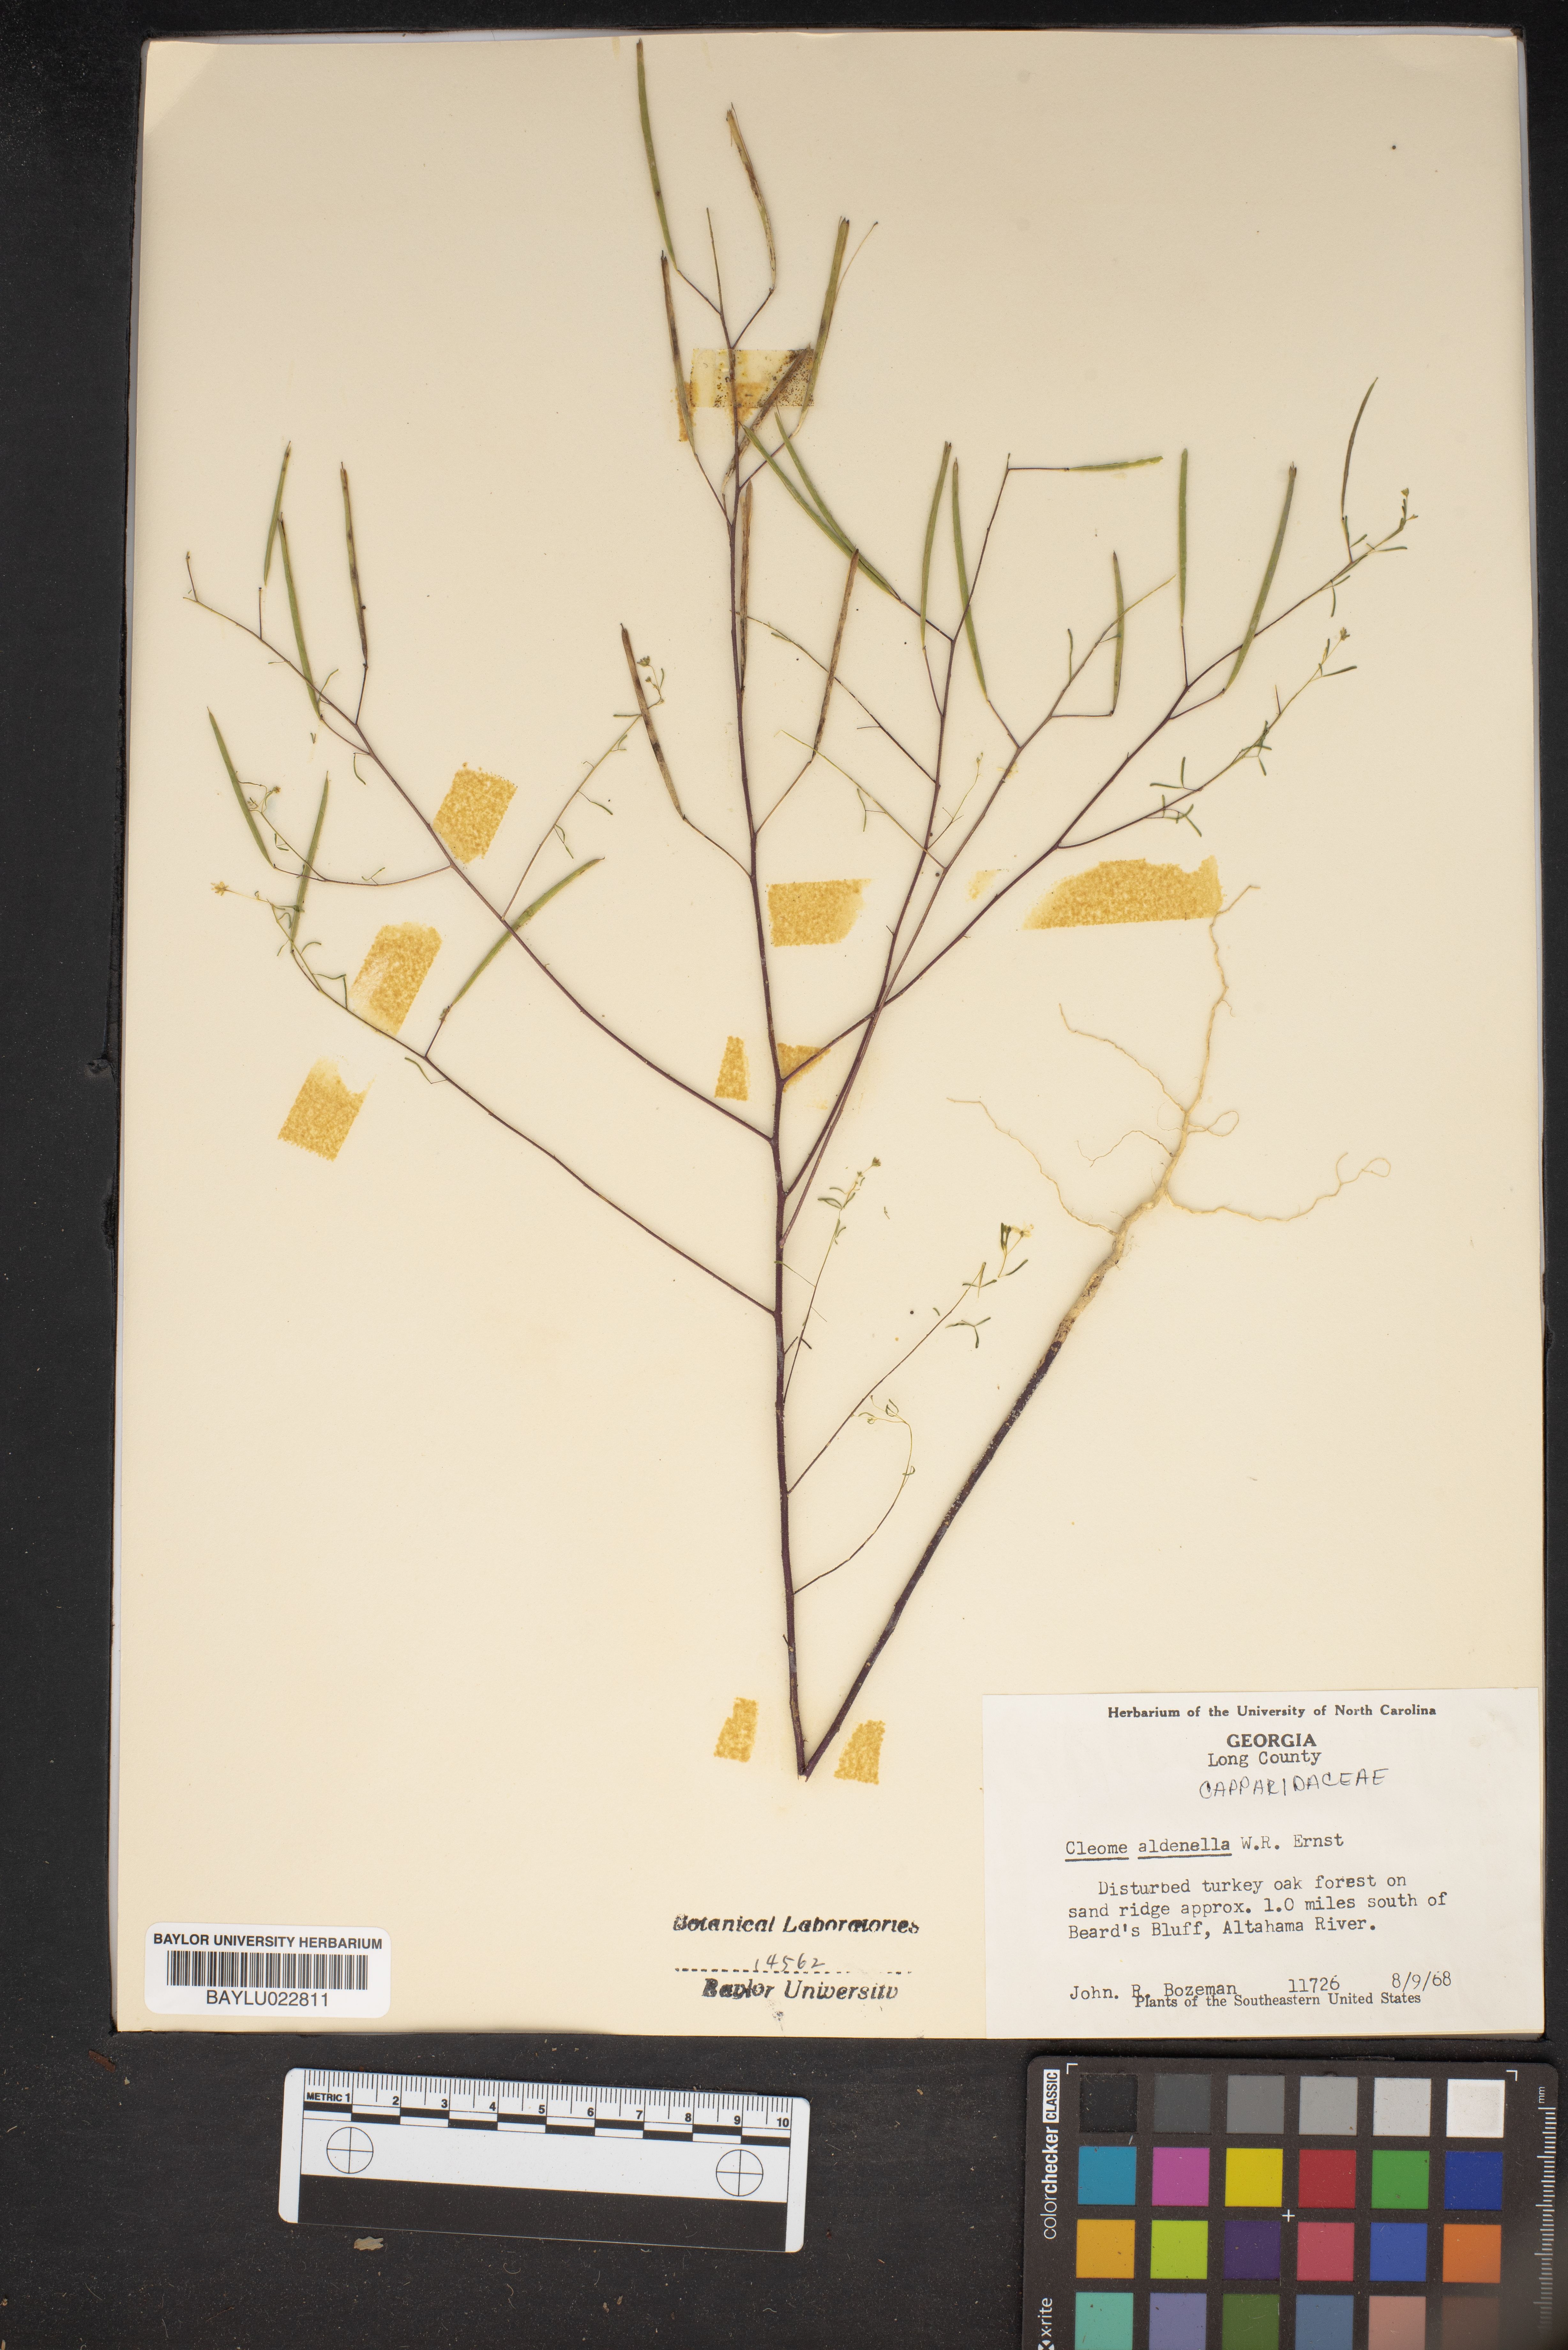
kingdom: Plantae
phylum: Tracheophyta
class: Magnoliopsida
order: Brassicales
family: Cleomaceae
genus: Polanisia
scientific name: Polanisia tenuifolia
